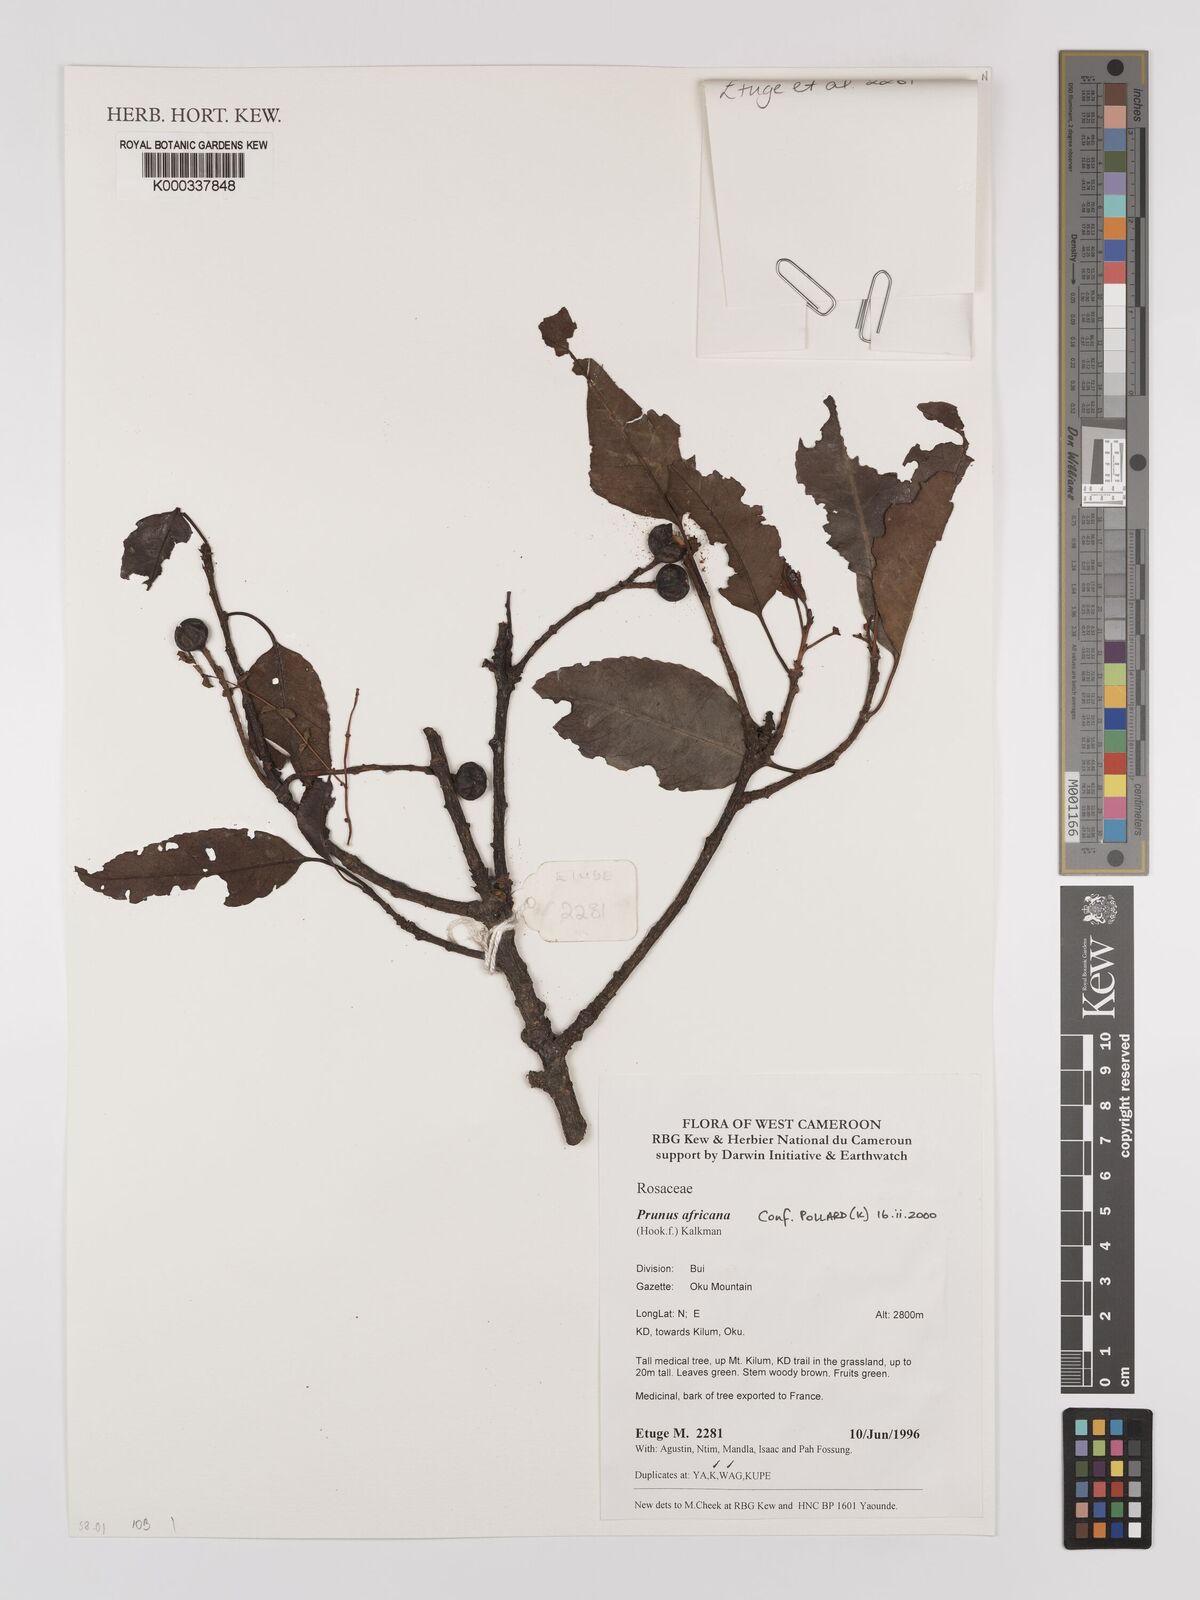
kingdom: Plantae
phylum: Tracheophyta
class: Magnoliopsida
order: Rosales
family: Rosaceae
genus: Prunus
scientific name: Prunus africana
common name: African cherry
